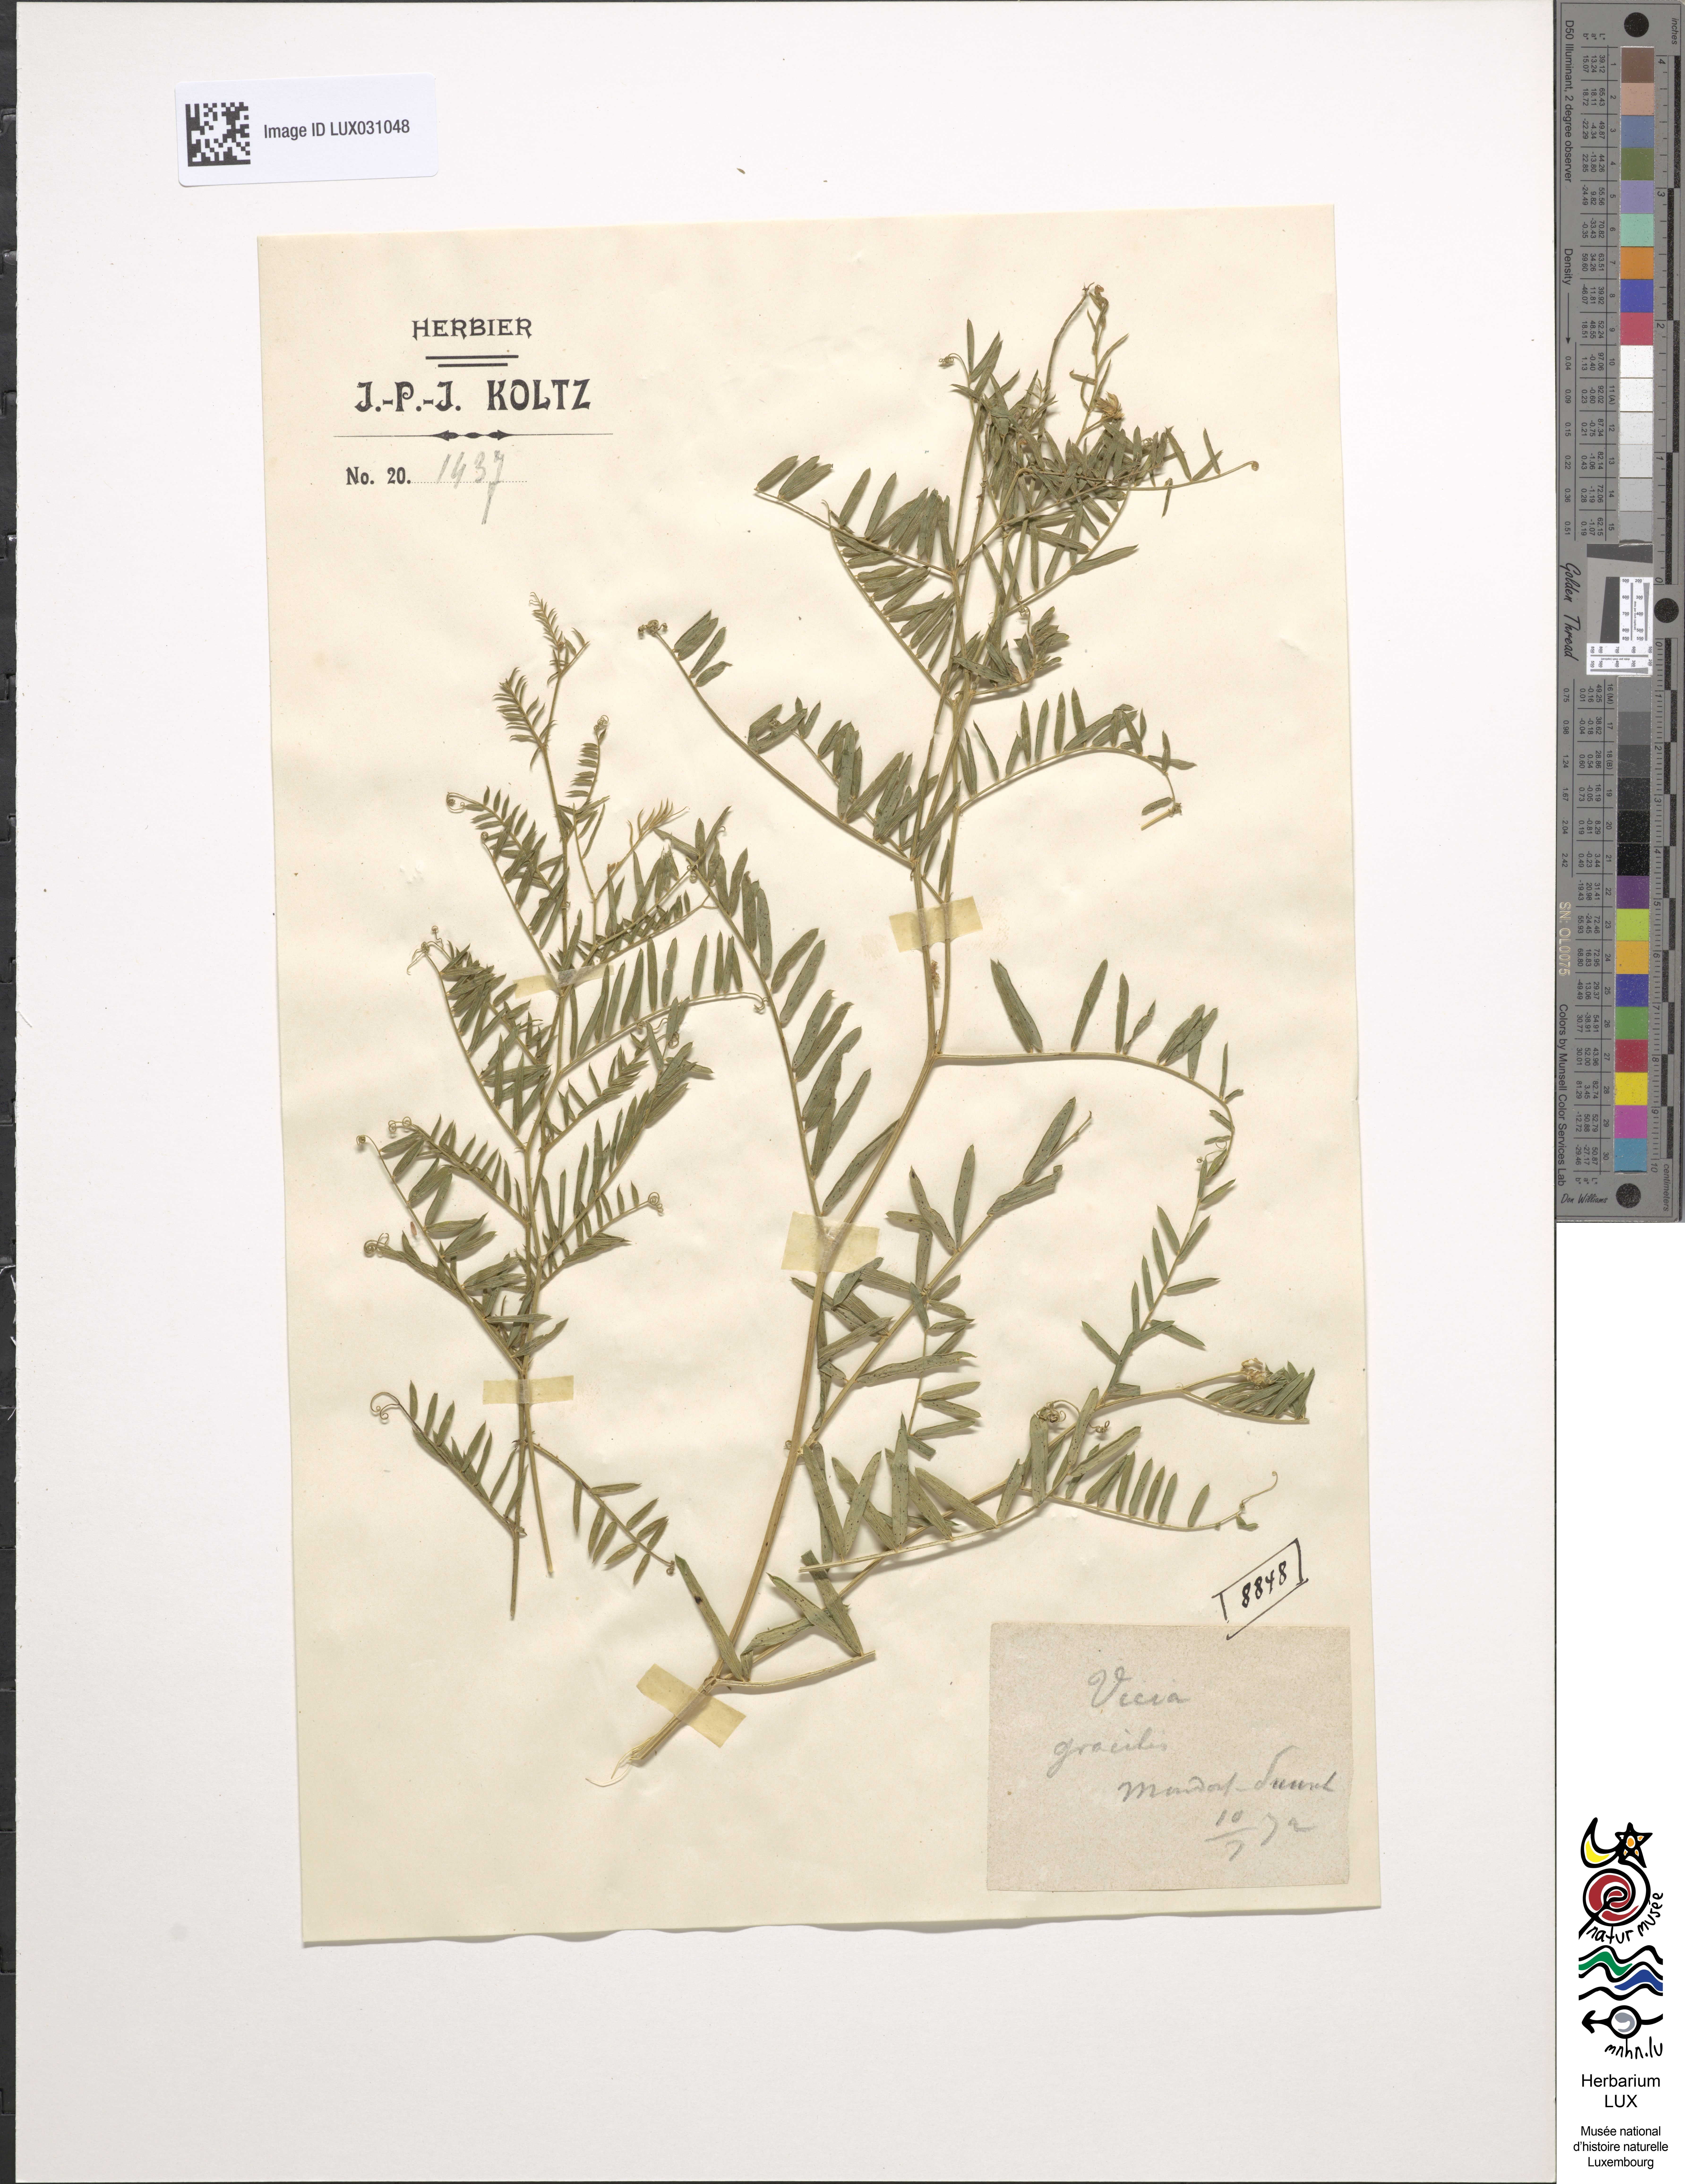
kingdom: Plantae
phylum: Tracheophyta
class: Magnoliopsida
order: Fabales
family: Fabaceae
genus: Vicia
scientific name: Vicia parviflora
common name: Slender tare
